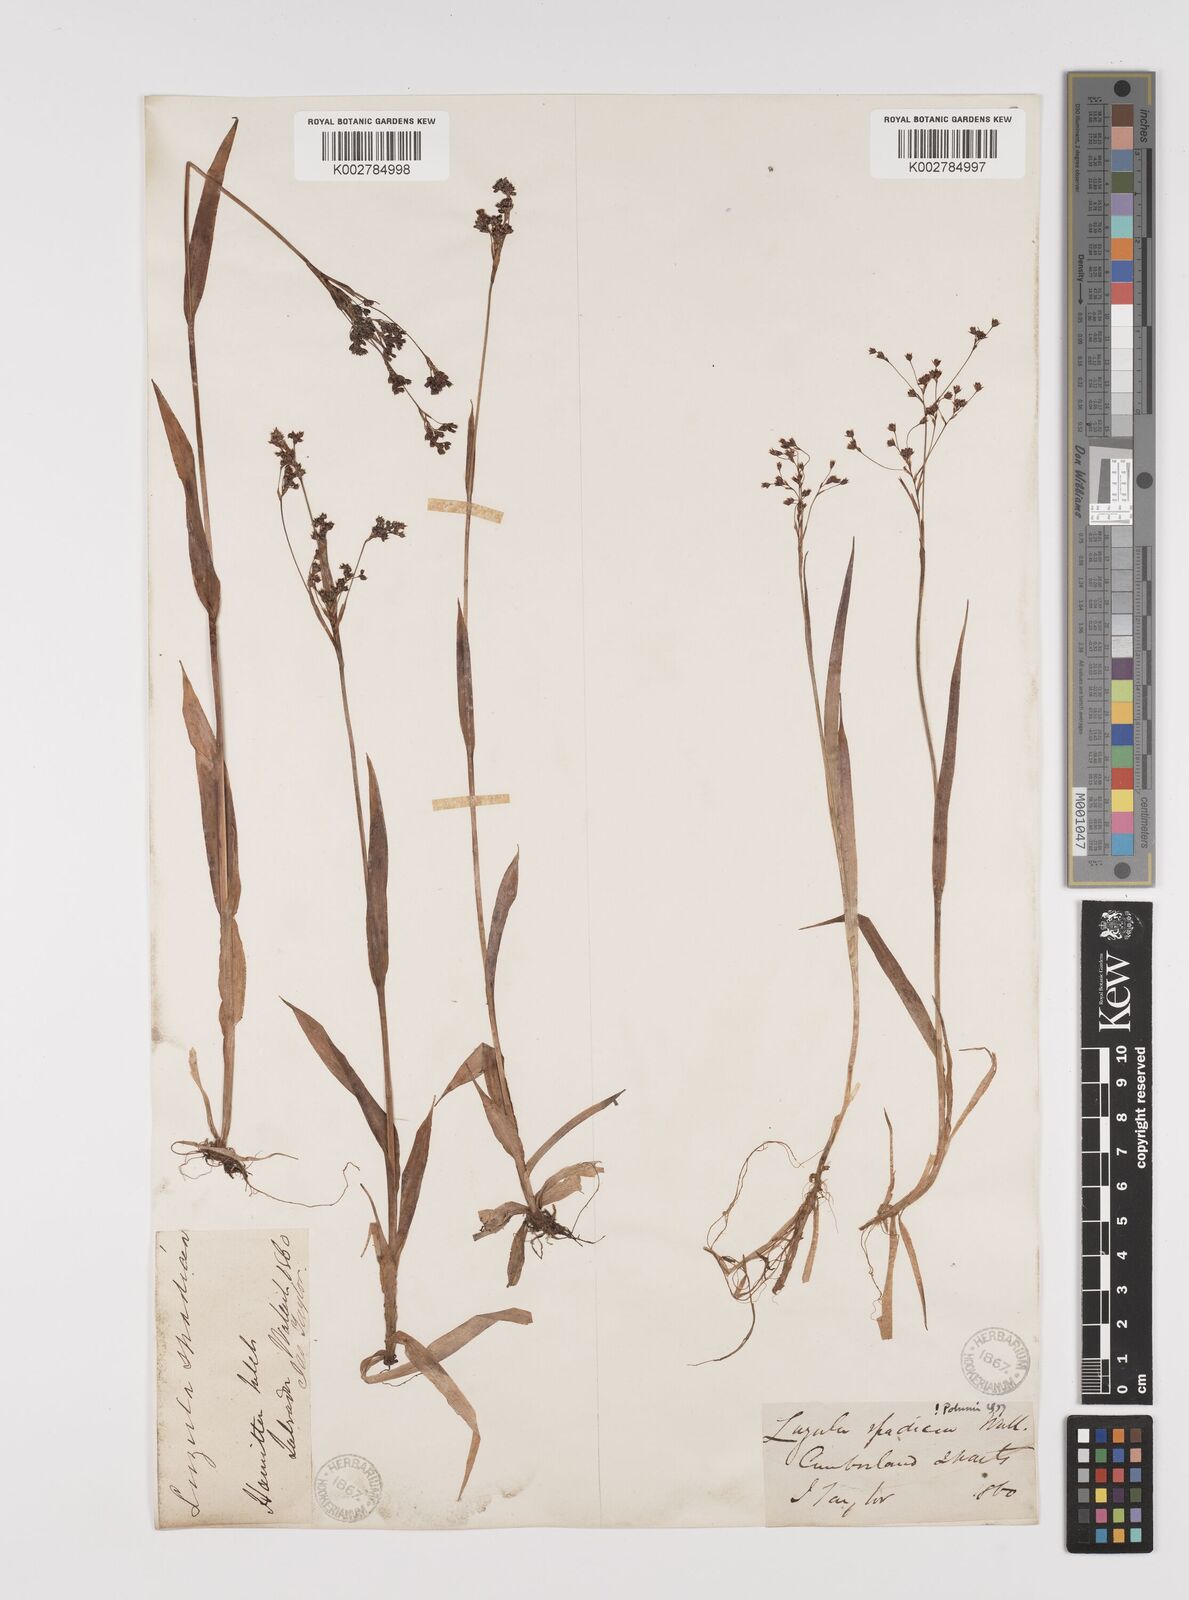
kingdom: Plantae
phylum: Tracheophyta
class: Liliopsida
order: Poales
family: Juncaceae
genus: Luzula
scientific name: Luzula parviflora
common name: Millet woodrush
